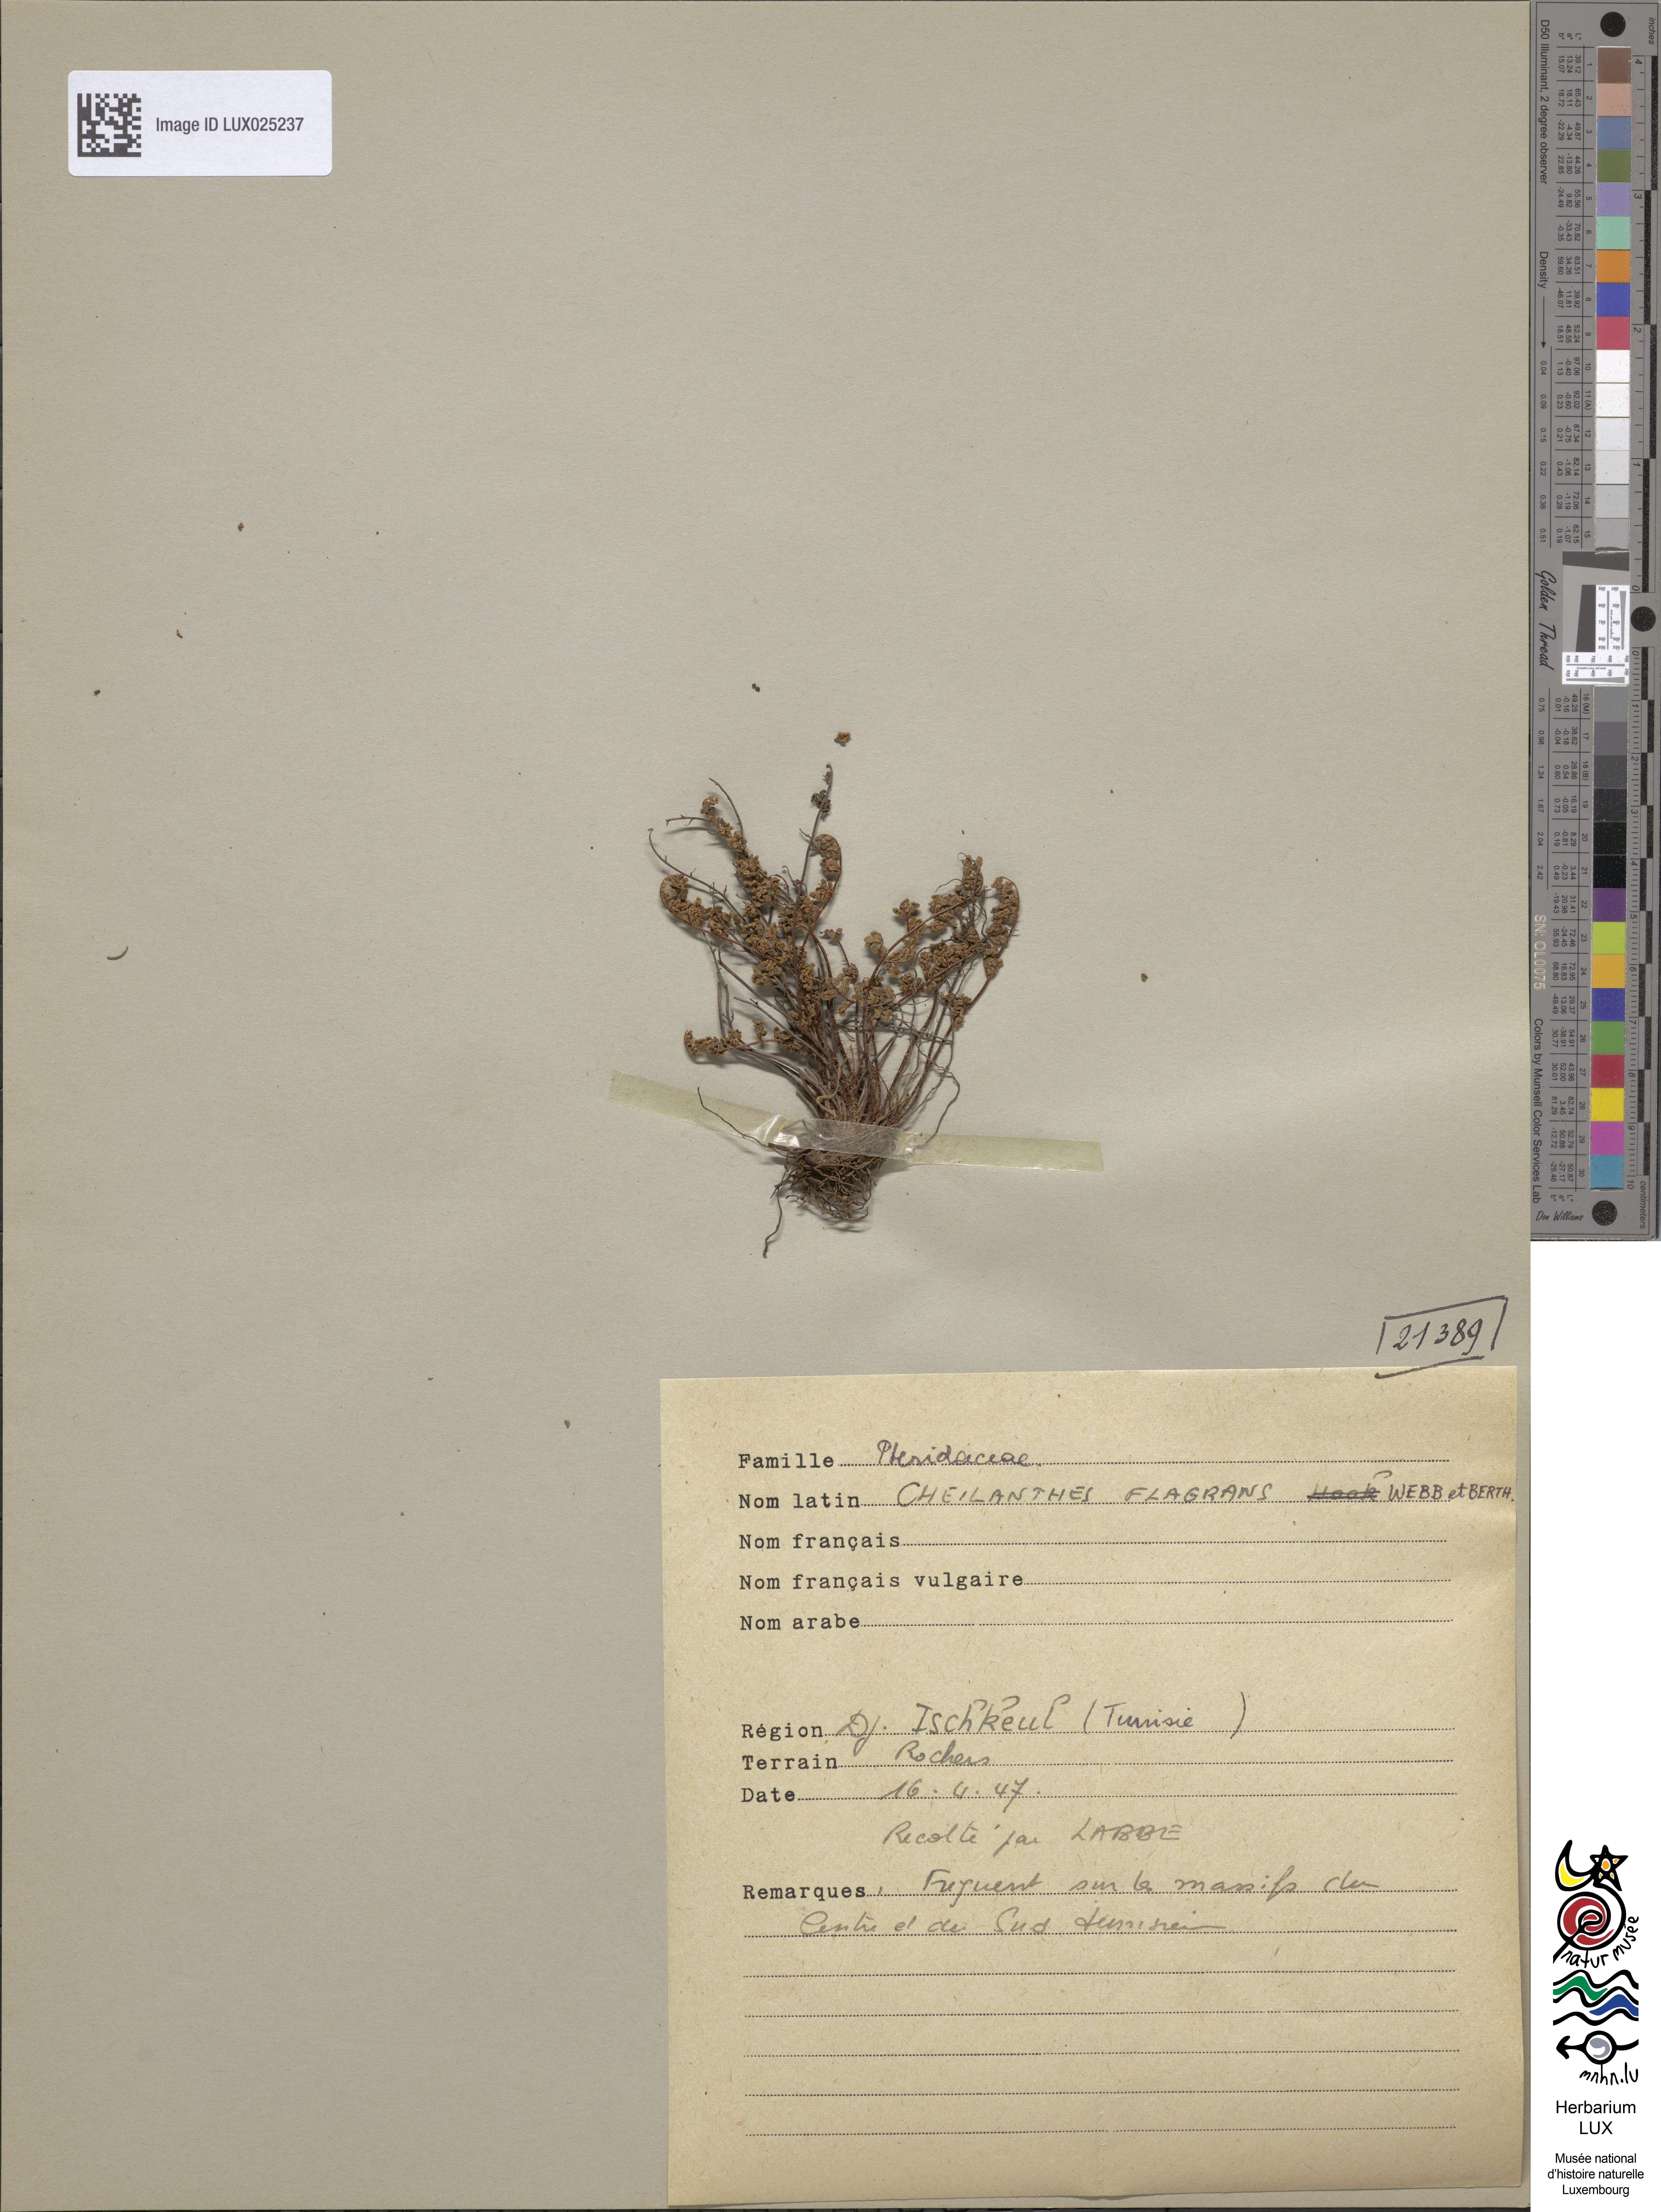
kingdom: Plantae
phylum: Tracheophyta
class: Polypodiopsida
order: Polypodiales
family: Pteridaceae
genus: Oeosporangium
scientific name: Oeosporangium pteridioides
